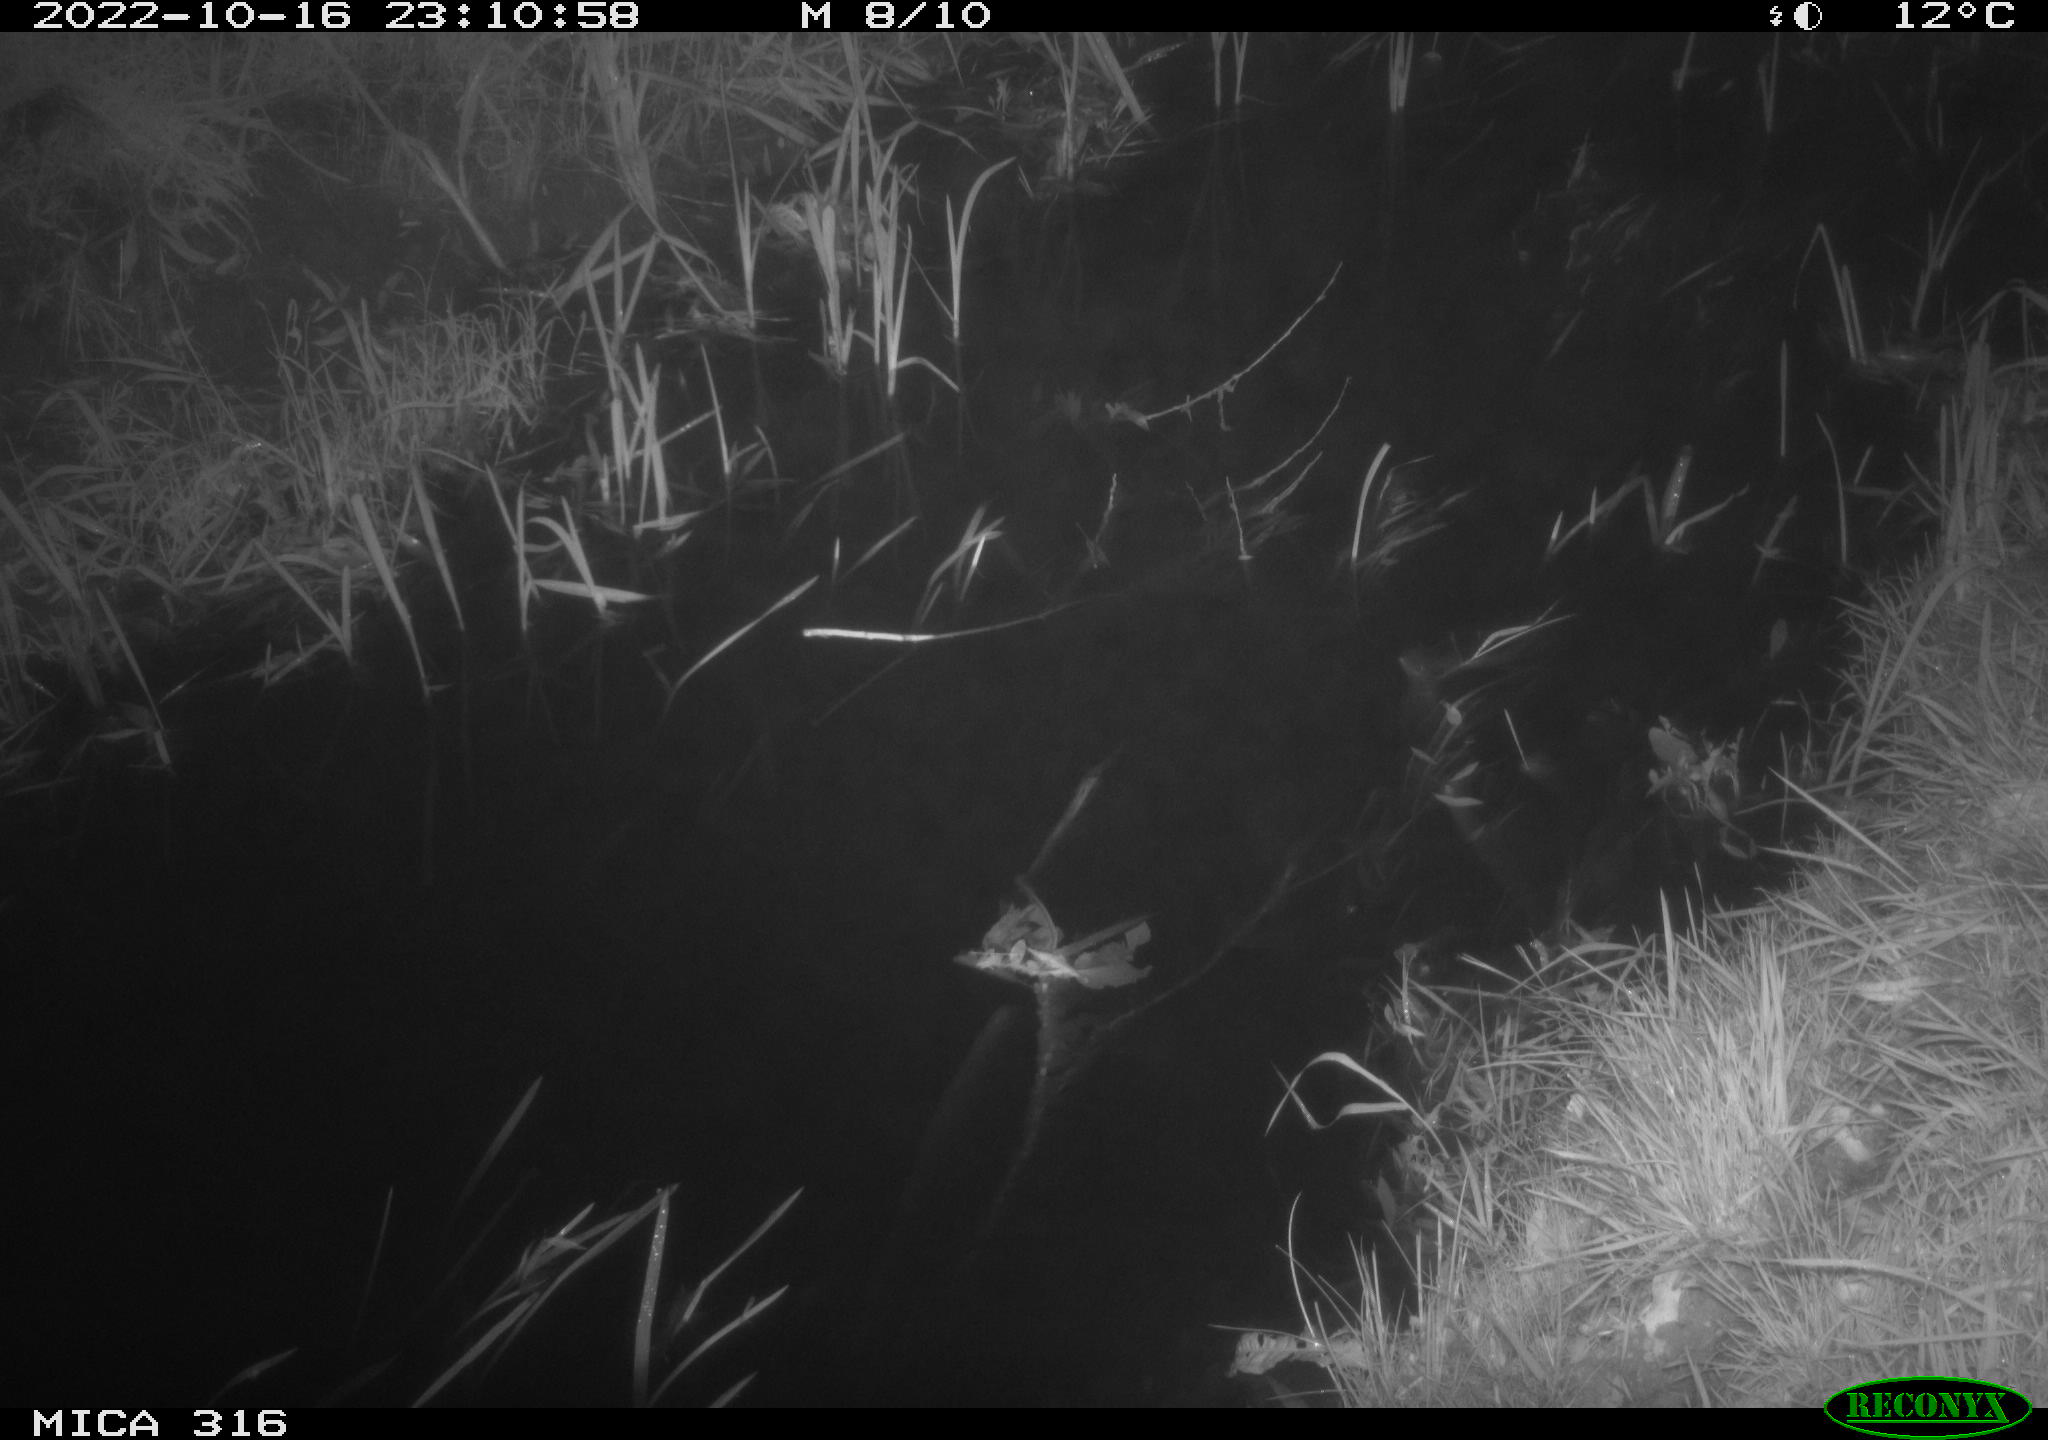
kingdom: Animalia
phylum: Chordata
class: Mammalia
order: Carnivora
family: Canidae
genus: Vulpes
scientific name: Vulpes vulpes
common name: Red fox
